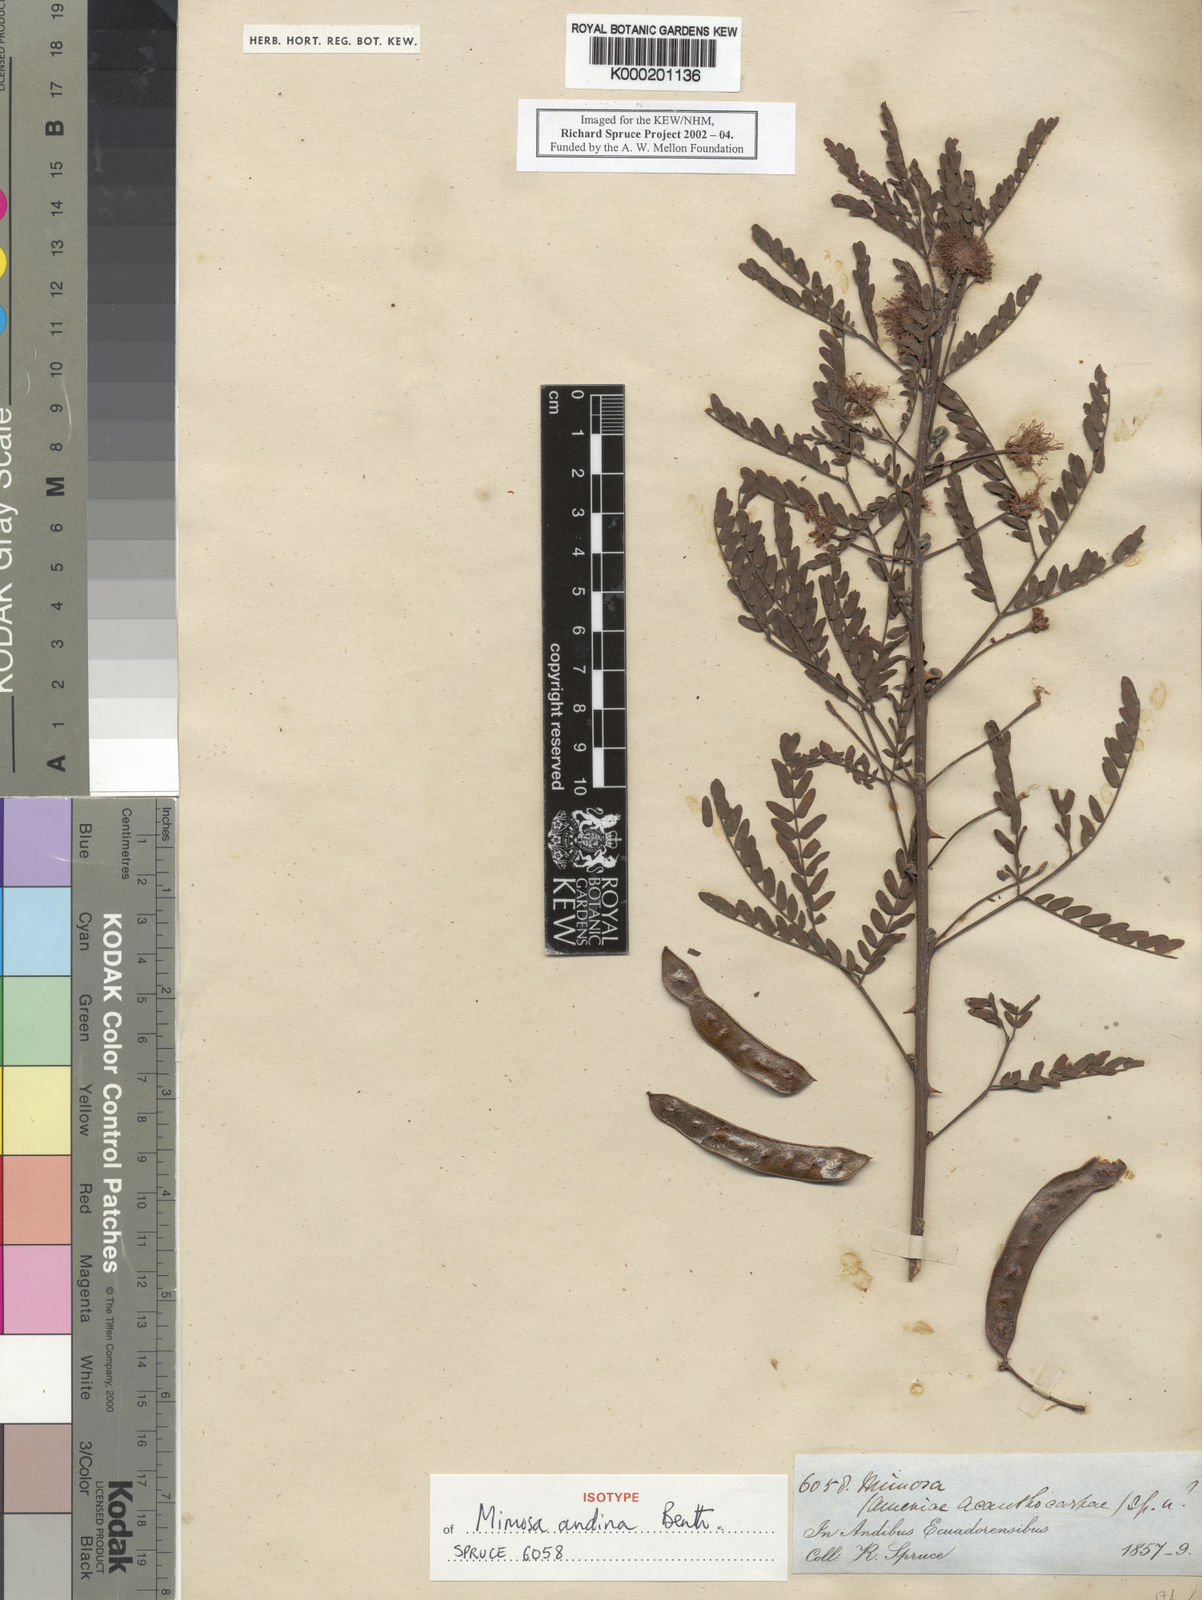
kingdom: Plantae
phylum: Tracheophyta
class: Magnoliopsida
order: Fabales
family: Fabaceae
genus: Mimosa
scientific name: Mimosa andina
